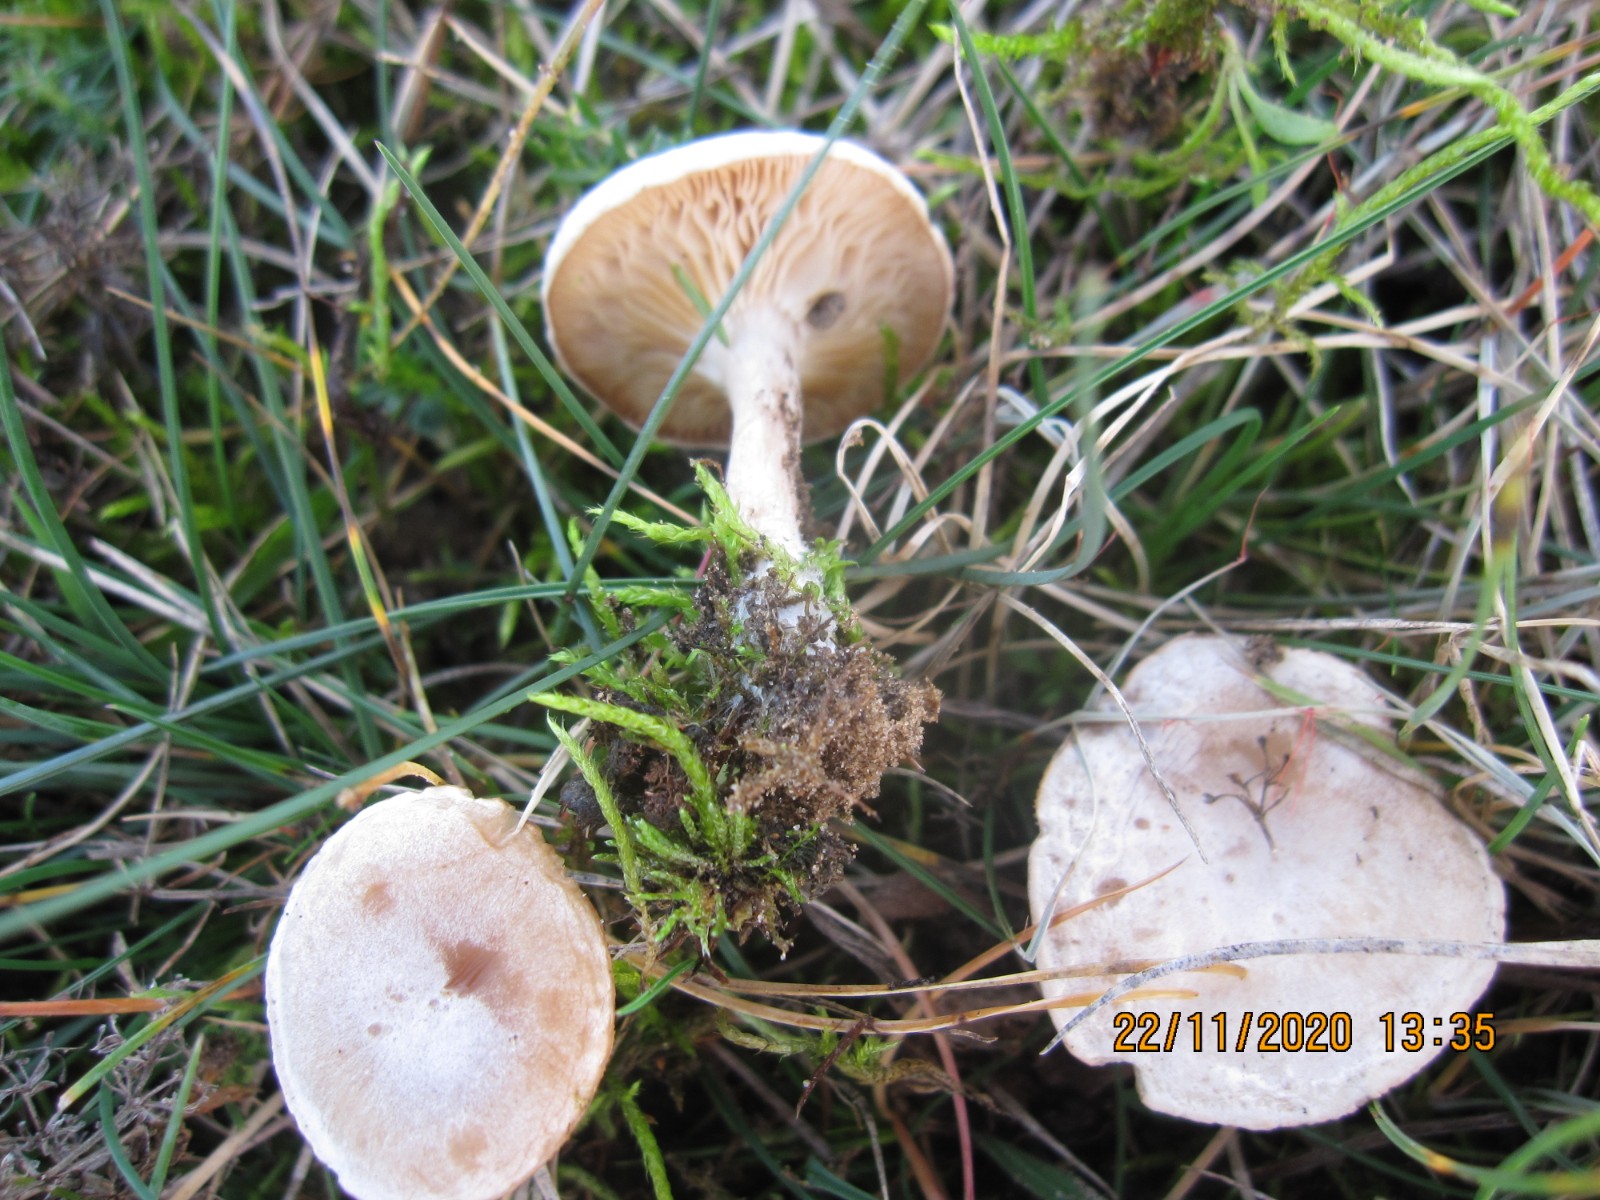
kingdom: Fungi
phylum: Basidiomycota
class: Agaricomycetes
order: Agaricales
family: Tricholomataceae
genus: Clitocybe
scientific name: Clitocybe rivulosa
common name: eng-tragthat
